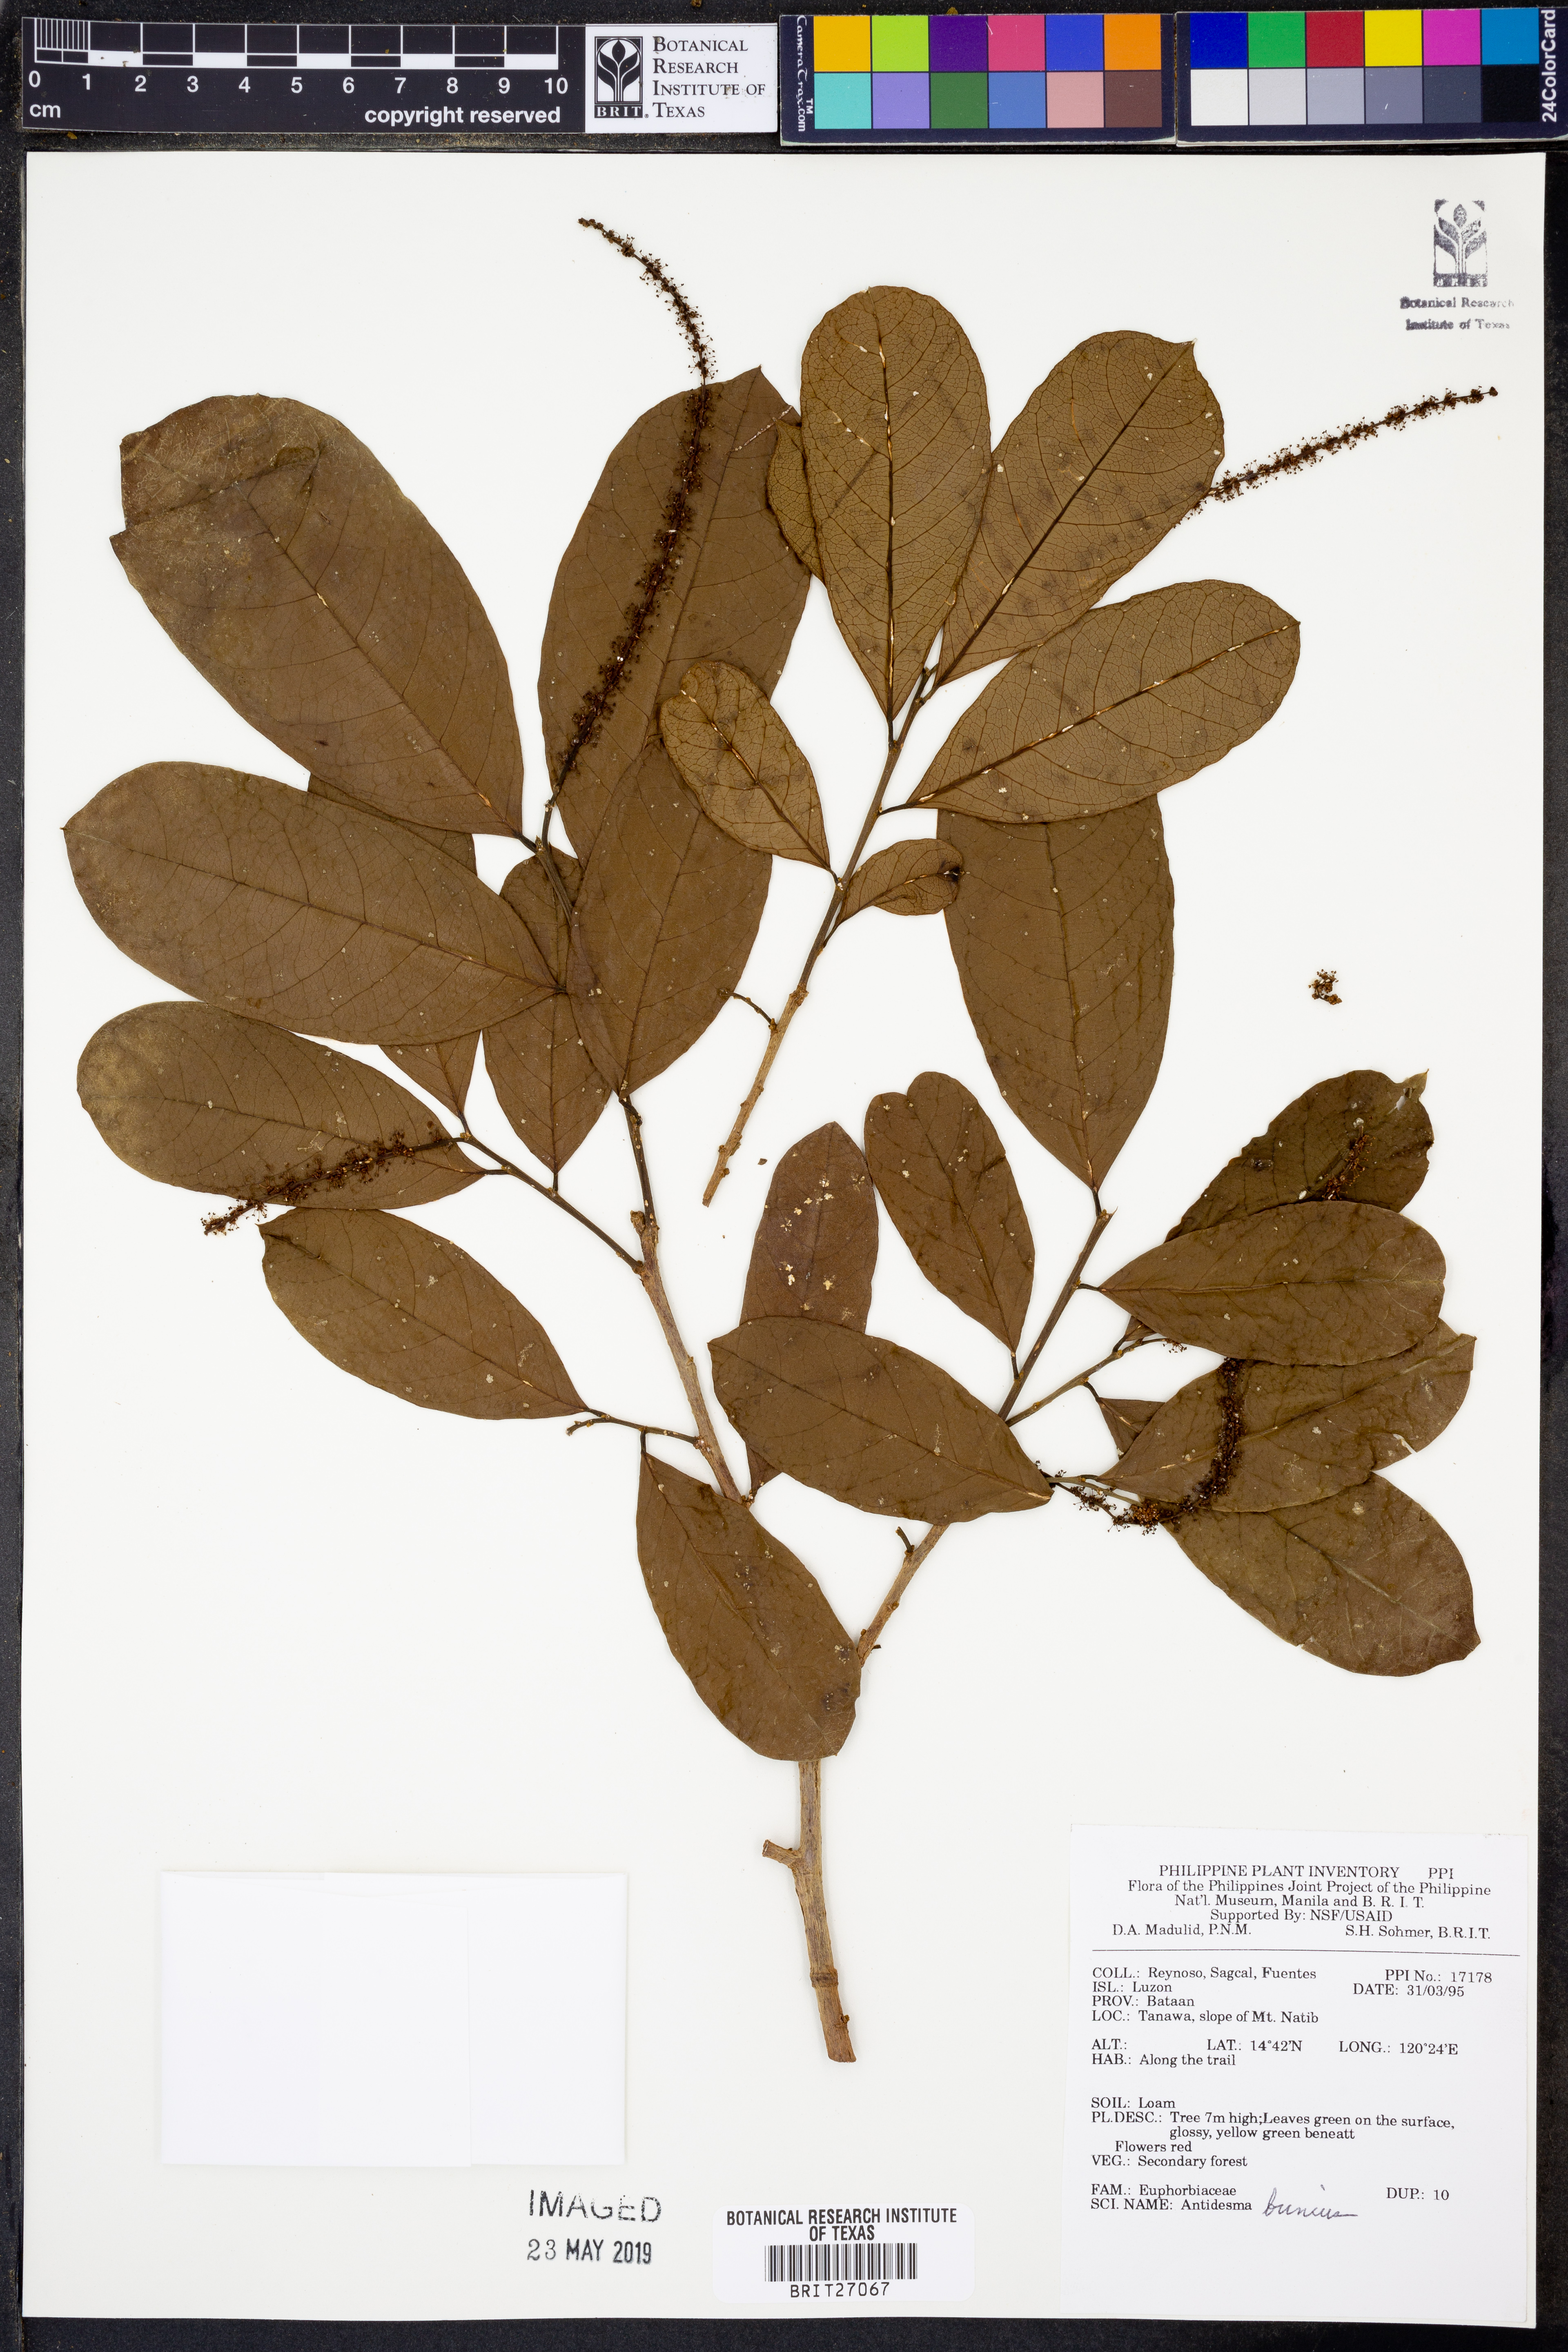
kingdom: Plantae
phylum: Tracheophyta
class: Magnoliopsida
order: Malpighiales
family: Phyllanthaceae
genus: Antidesma
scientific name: Antidesma bunius
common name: Chinese-laurel
